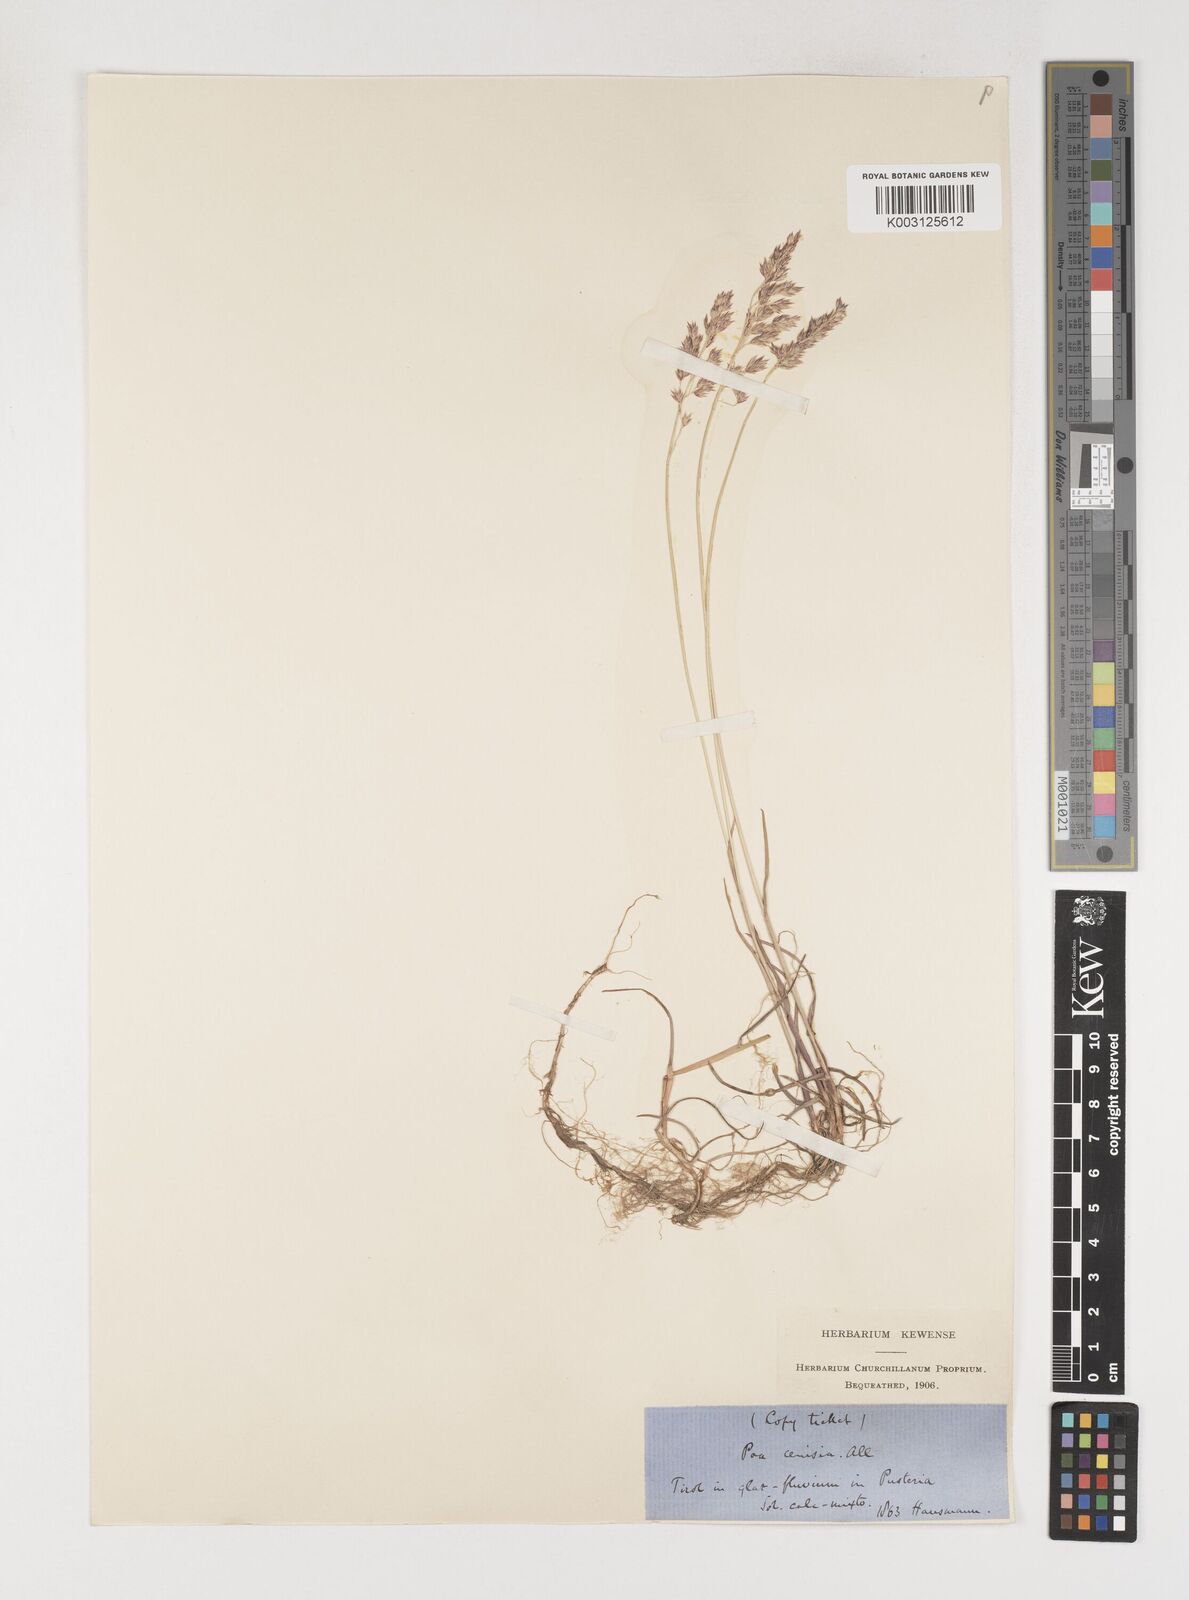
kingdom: Plantae
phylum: Tracheophyta
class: Liliopsida
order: Poales
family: Poaceae
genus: Poa
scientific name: Poa cenisia
